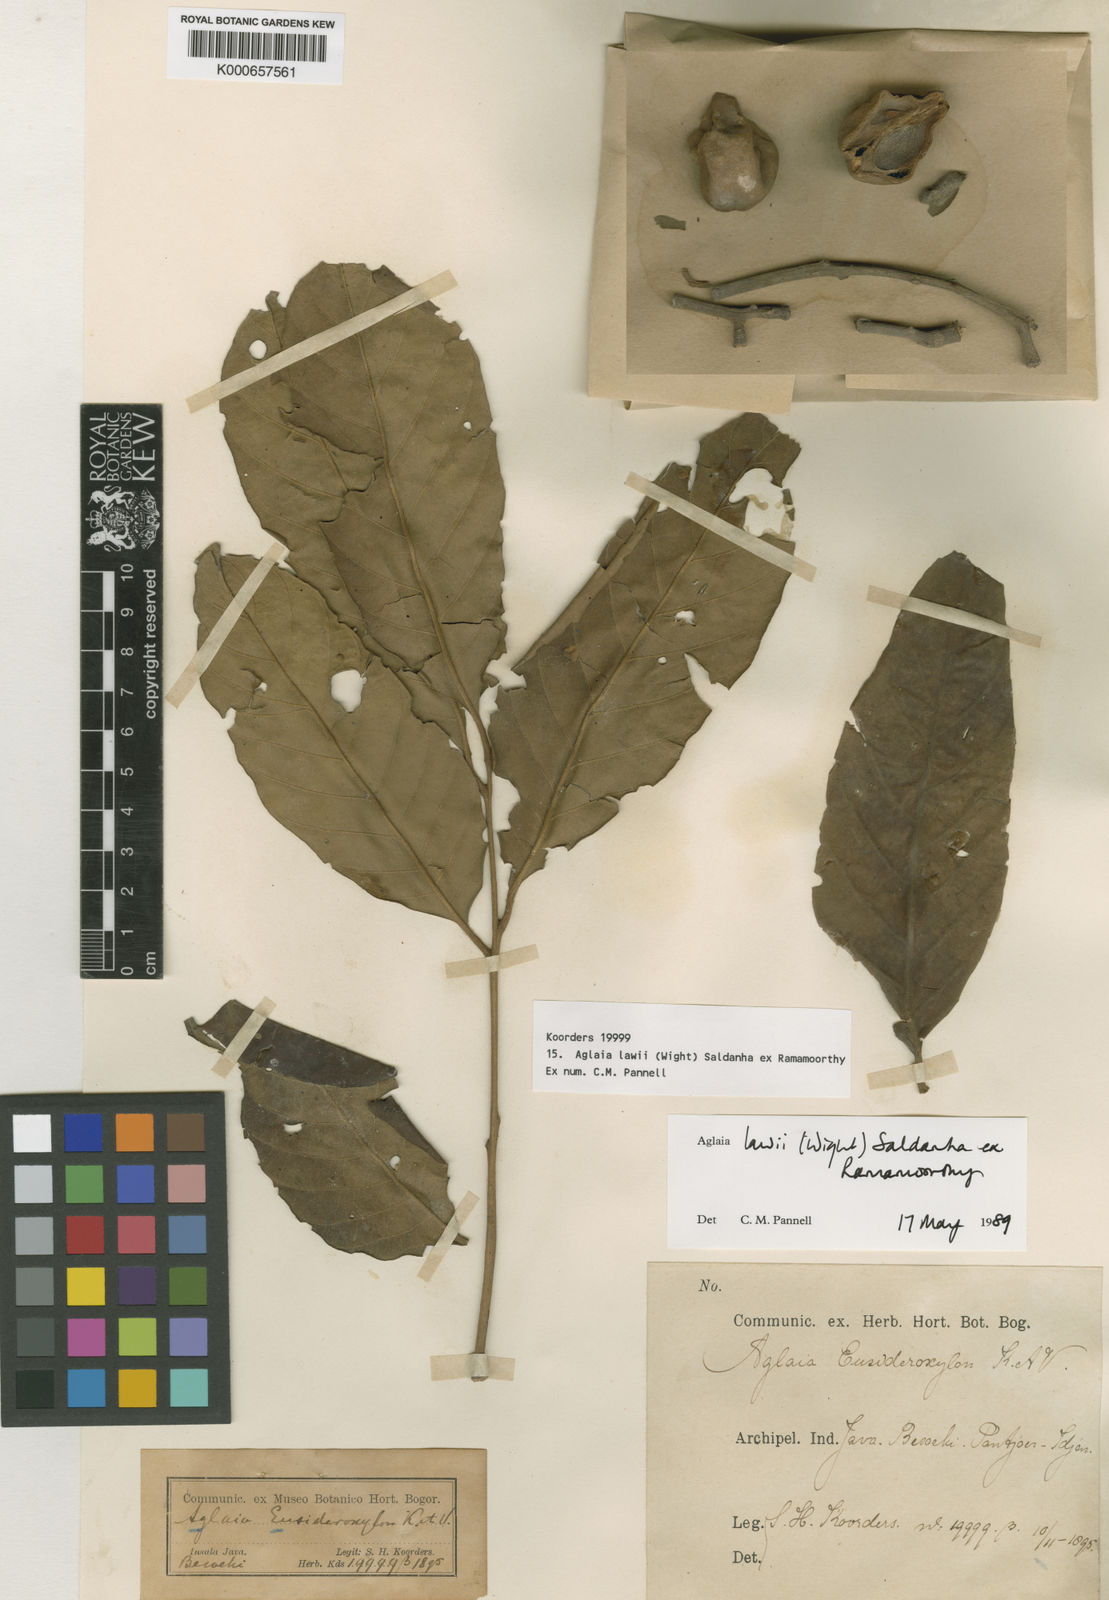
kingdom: Plantae
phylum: Tracheophyta
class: Magnoliopsida
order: Sapindales
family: Meliaceae
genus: Aglaia
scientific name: Aglaia lawii
